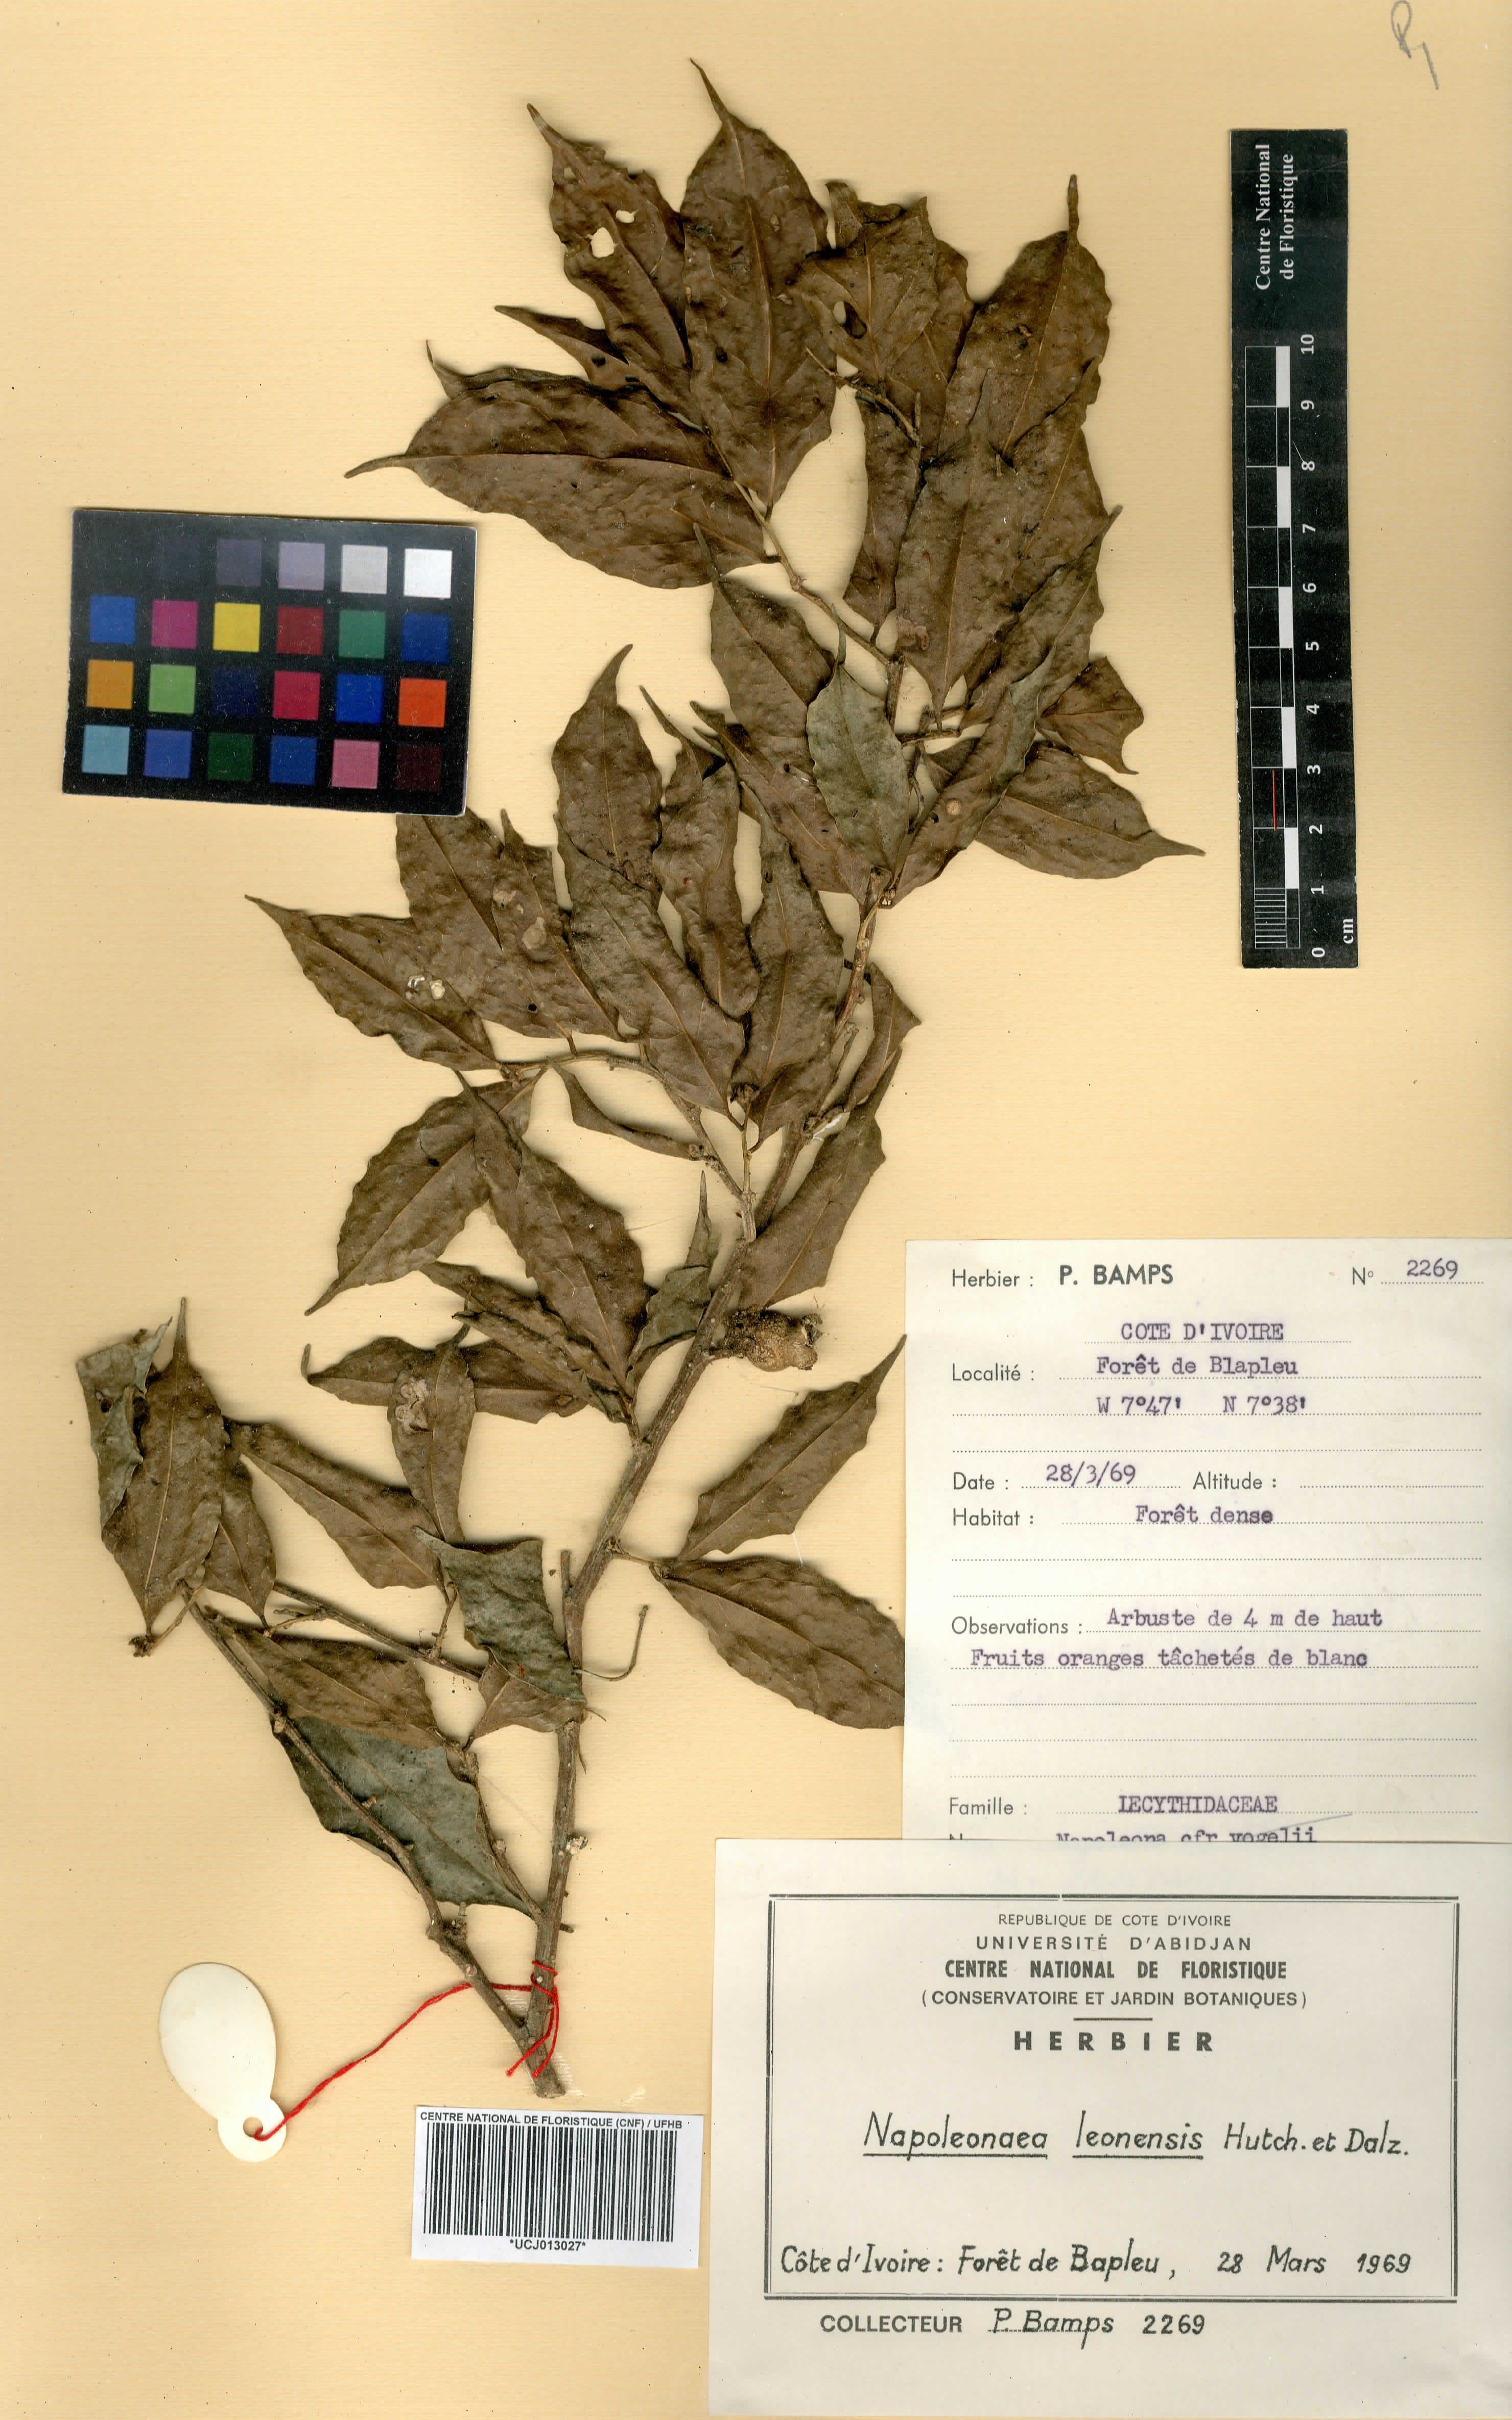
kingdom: Plantae
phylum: Tracheophyta
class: Magnoliopsida
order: Ericales
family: Lecythidaceae
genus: Napoleonaea
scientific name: Napoleonaea leonensis
